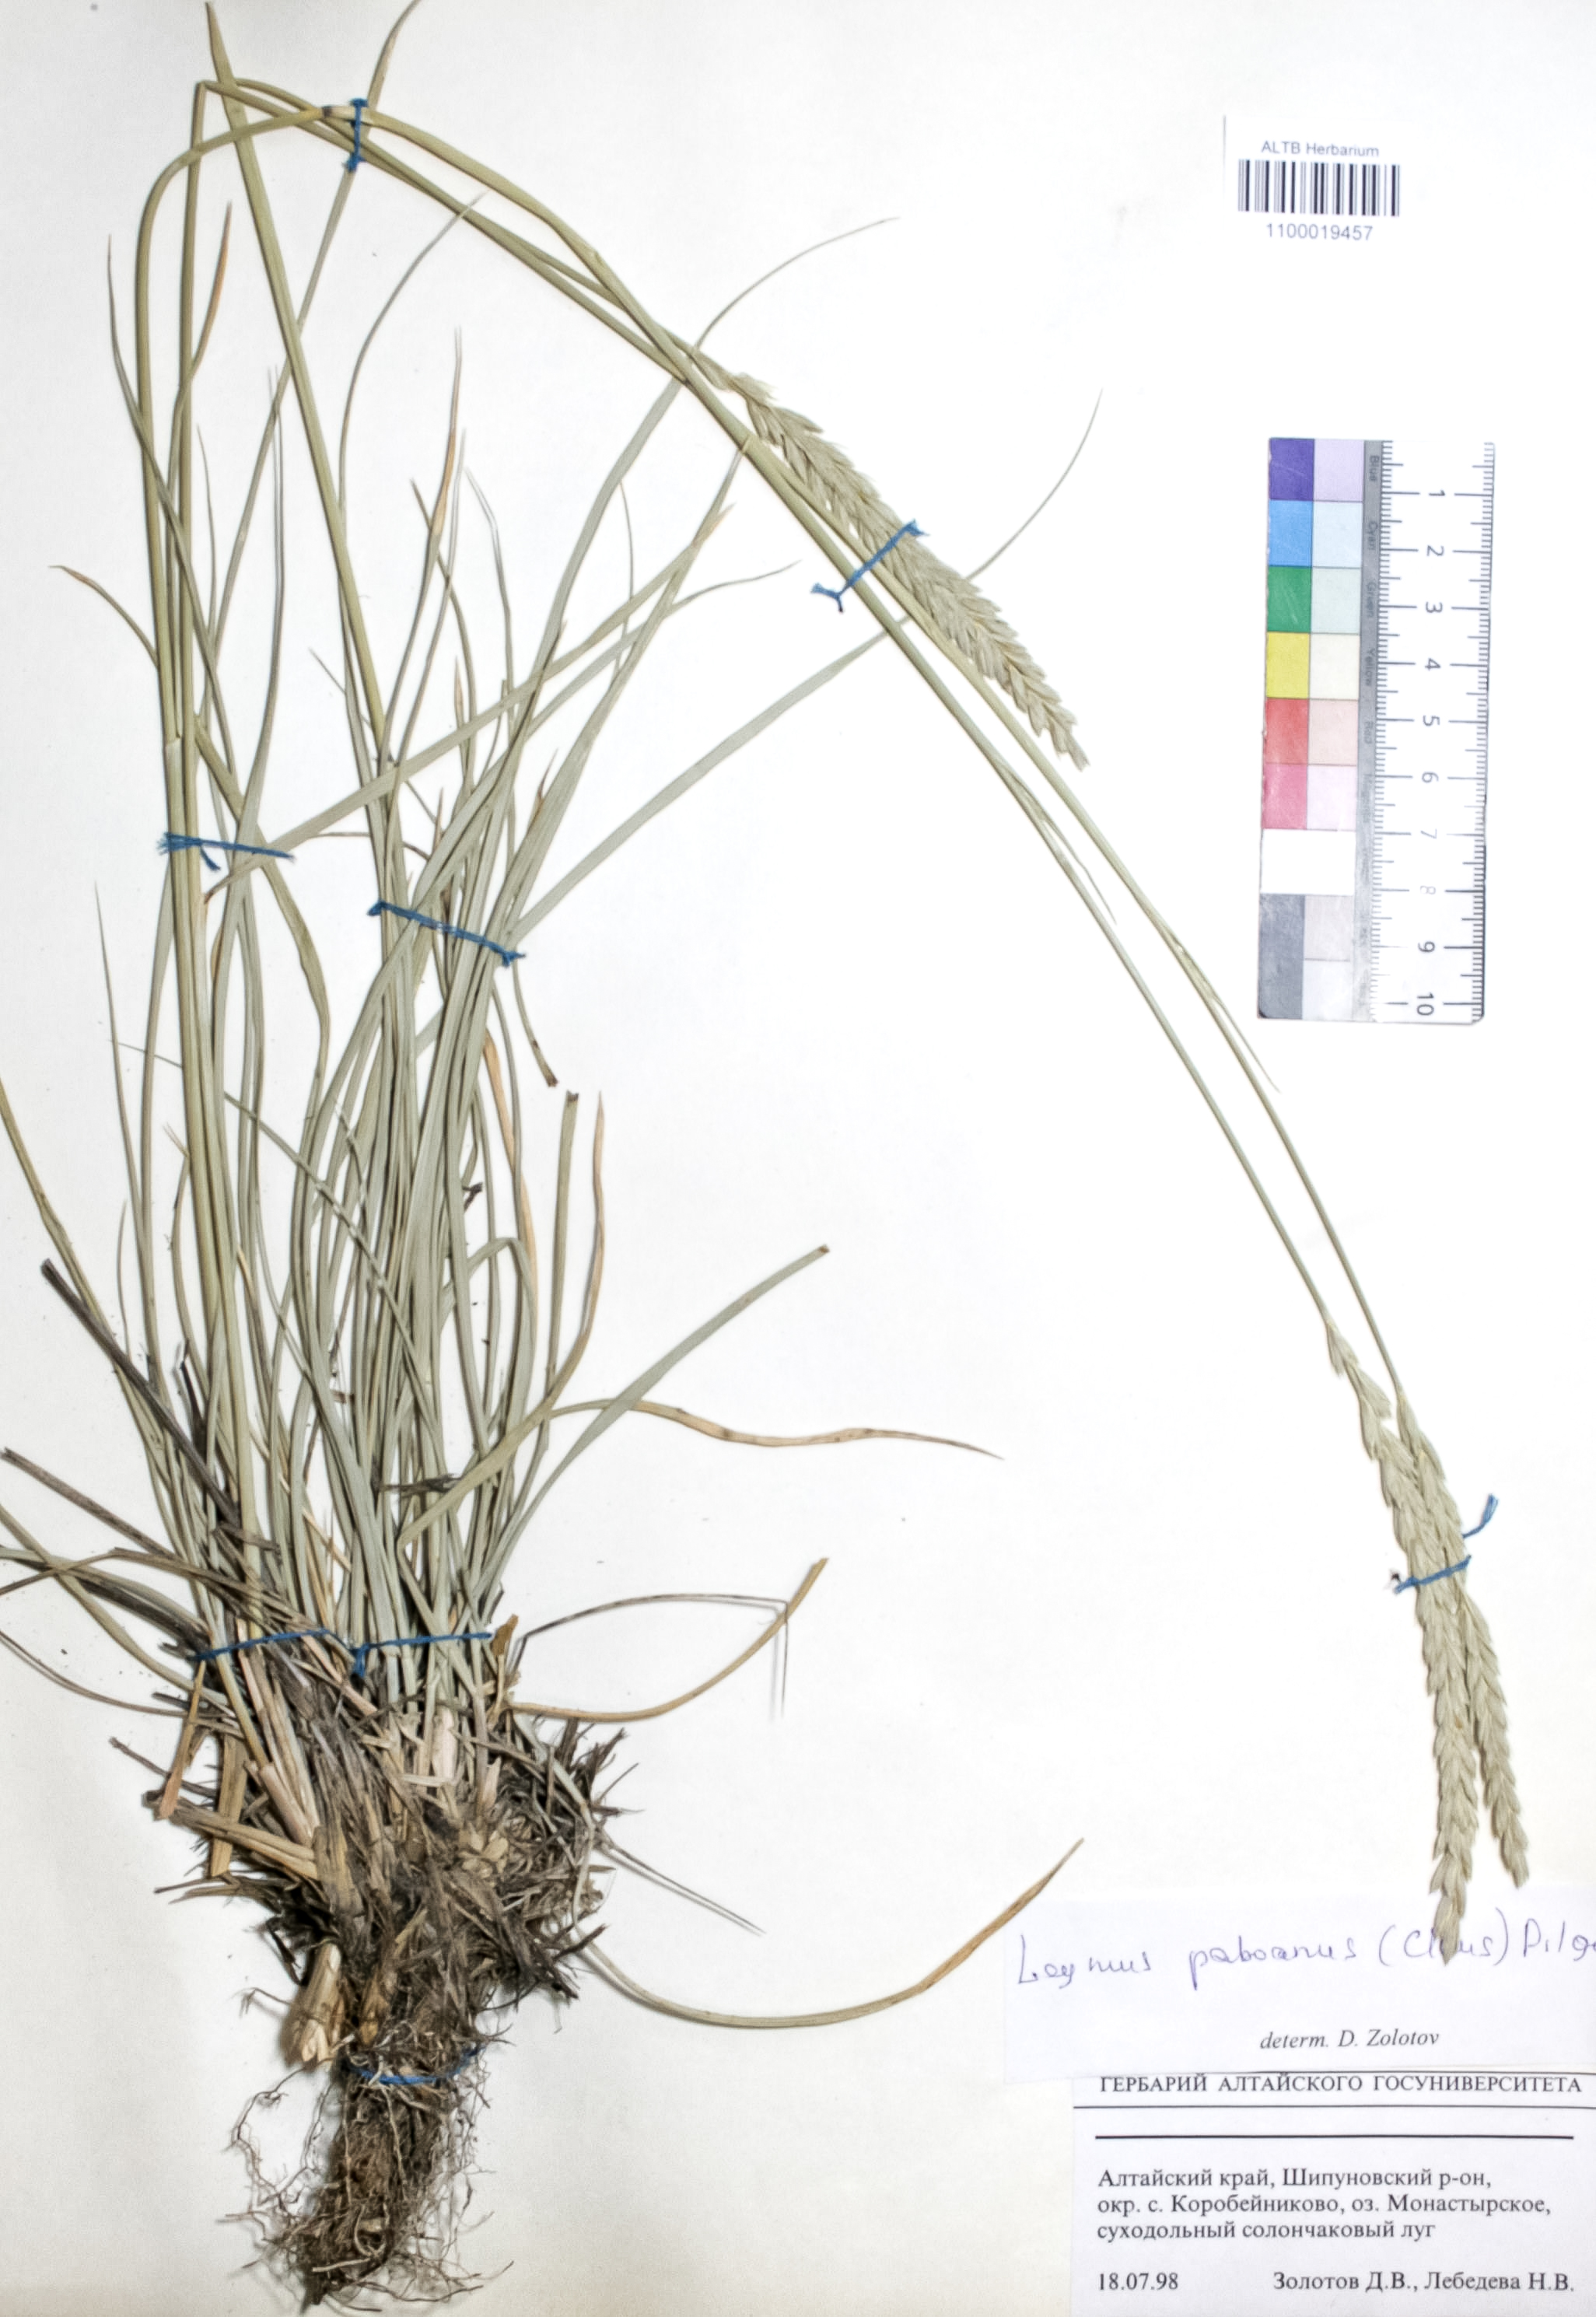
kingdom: Plantae
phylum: Tracheophyta
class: Liliopsida
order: Poales
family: Poaceae
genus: Leymus
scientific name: Leymus paboanus
